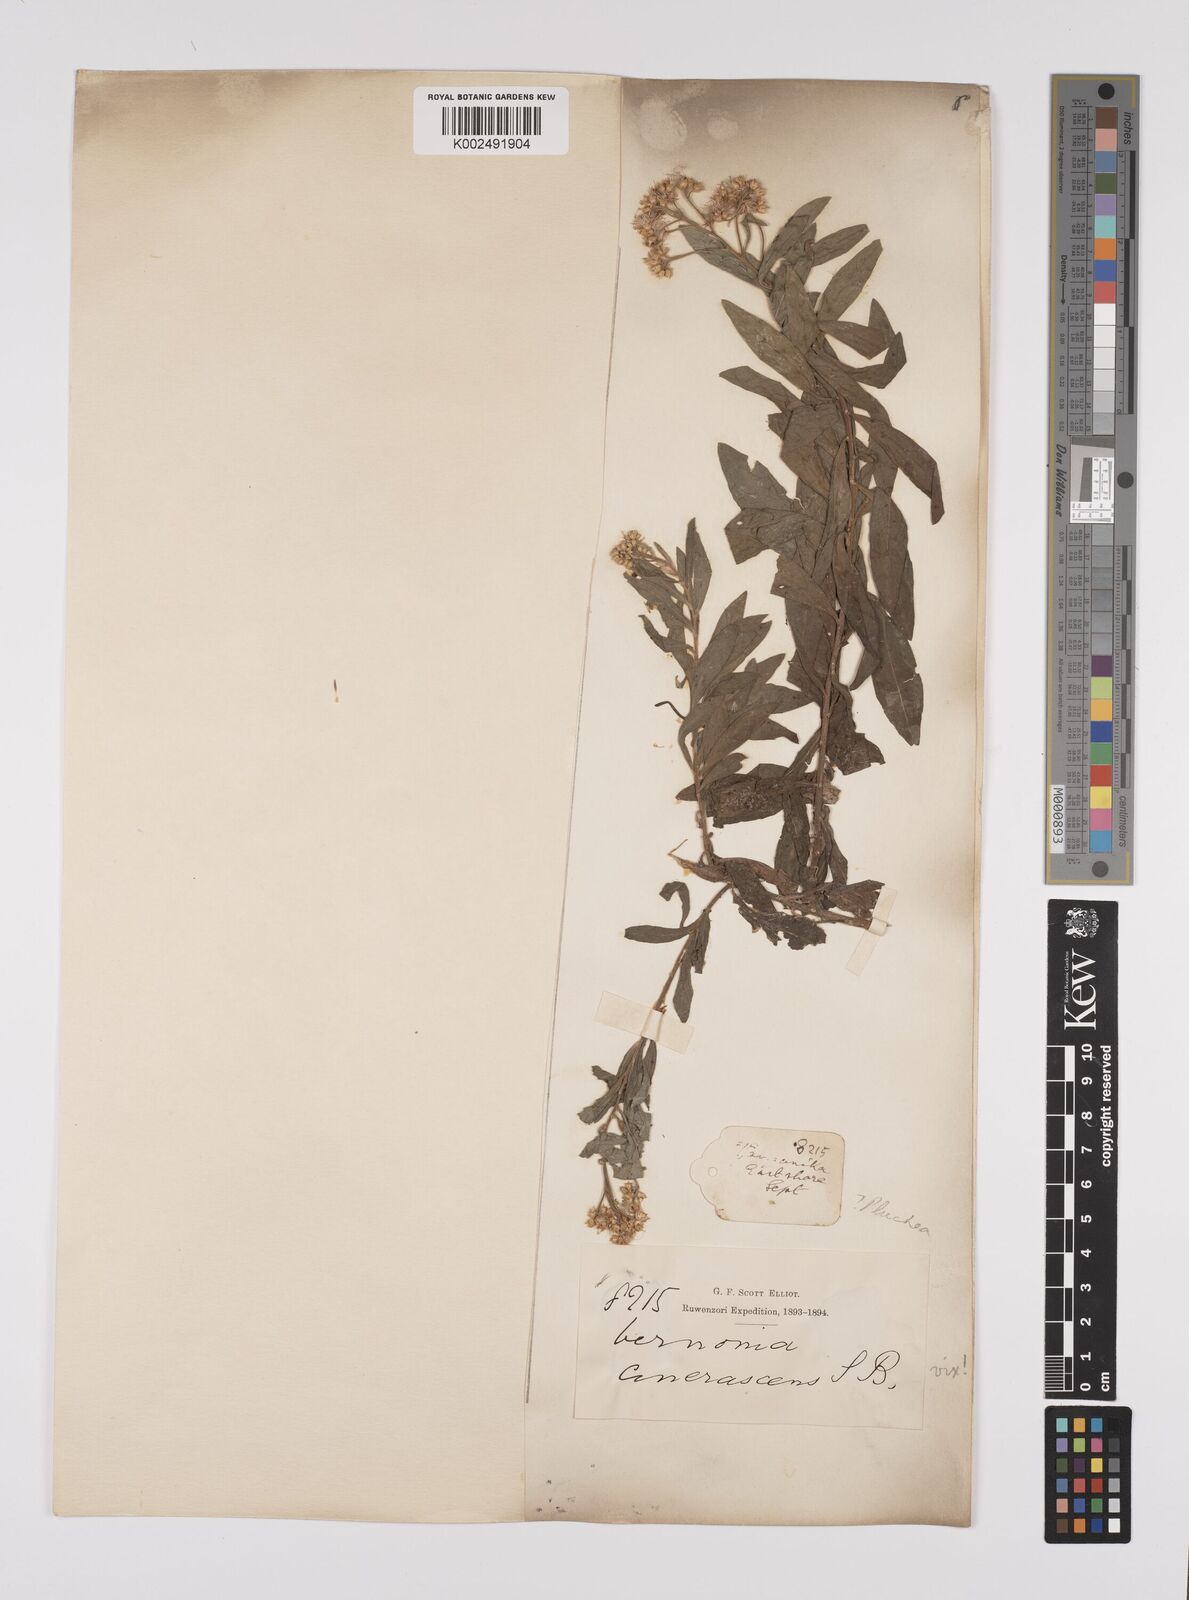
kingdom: Plantae
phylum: Tracheophyta
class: Magnoliopsida
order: Asterales
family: Asteraceae
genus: Pluchea
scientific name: Pluchea dioscoridis
